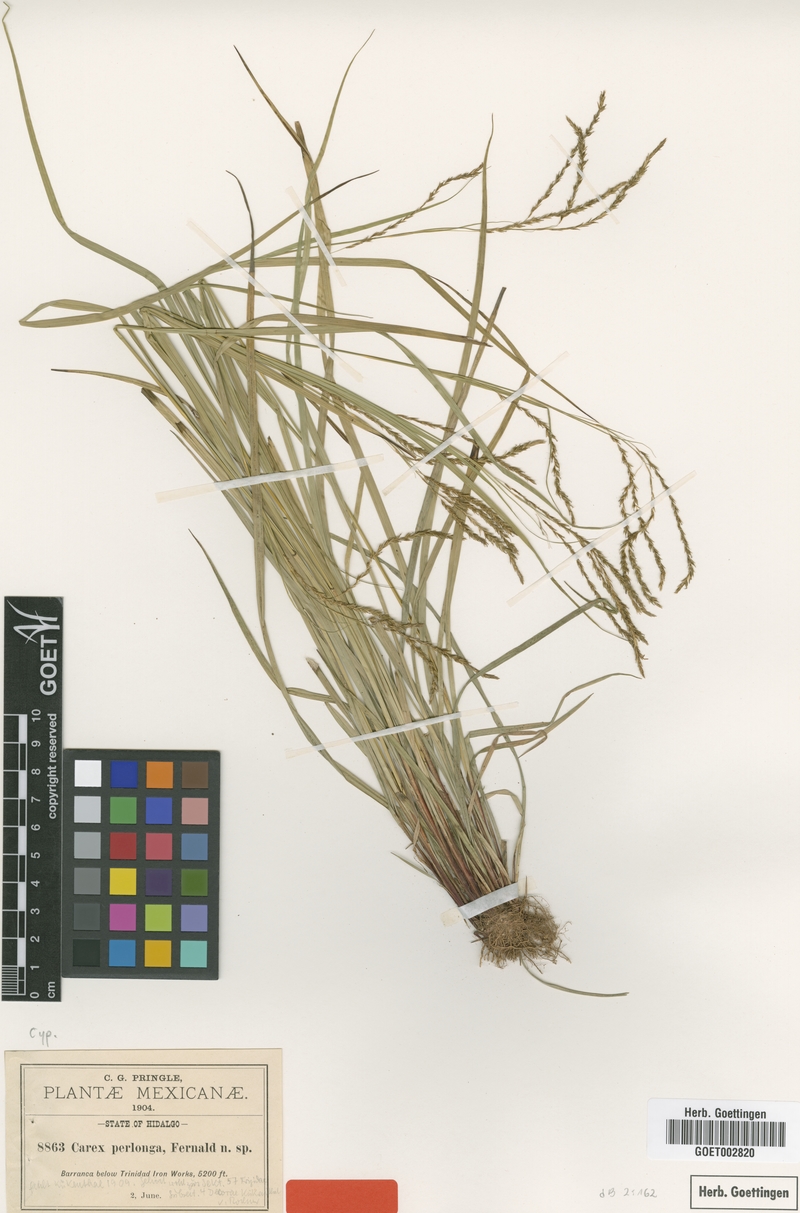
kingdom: Plantae
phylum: Tracheophyta
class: Liliopsida
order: Poales
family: Cyperaceae
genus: Carex
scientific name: Carex perlonga
